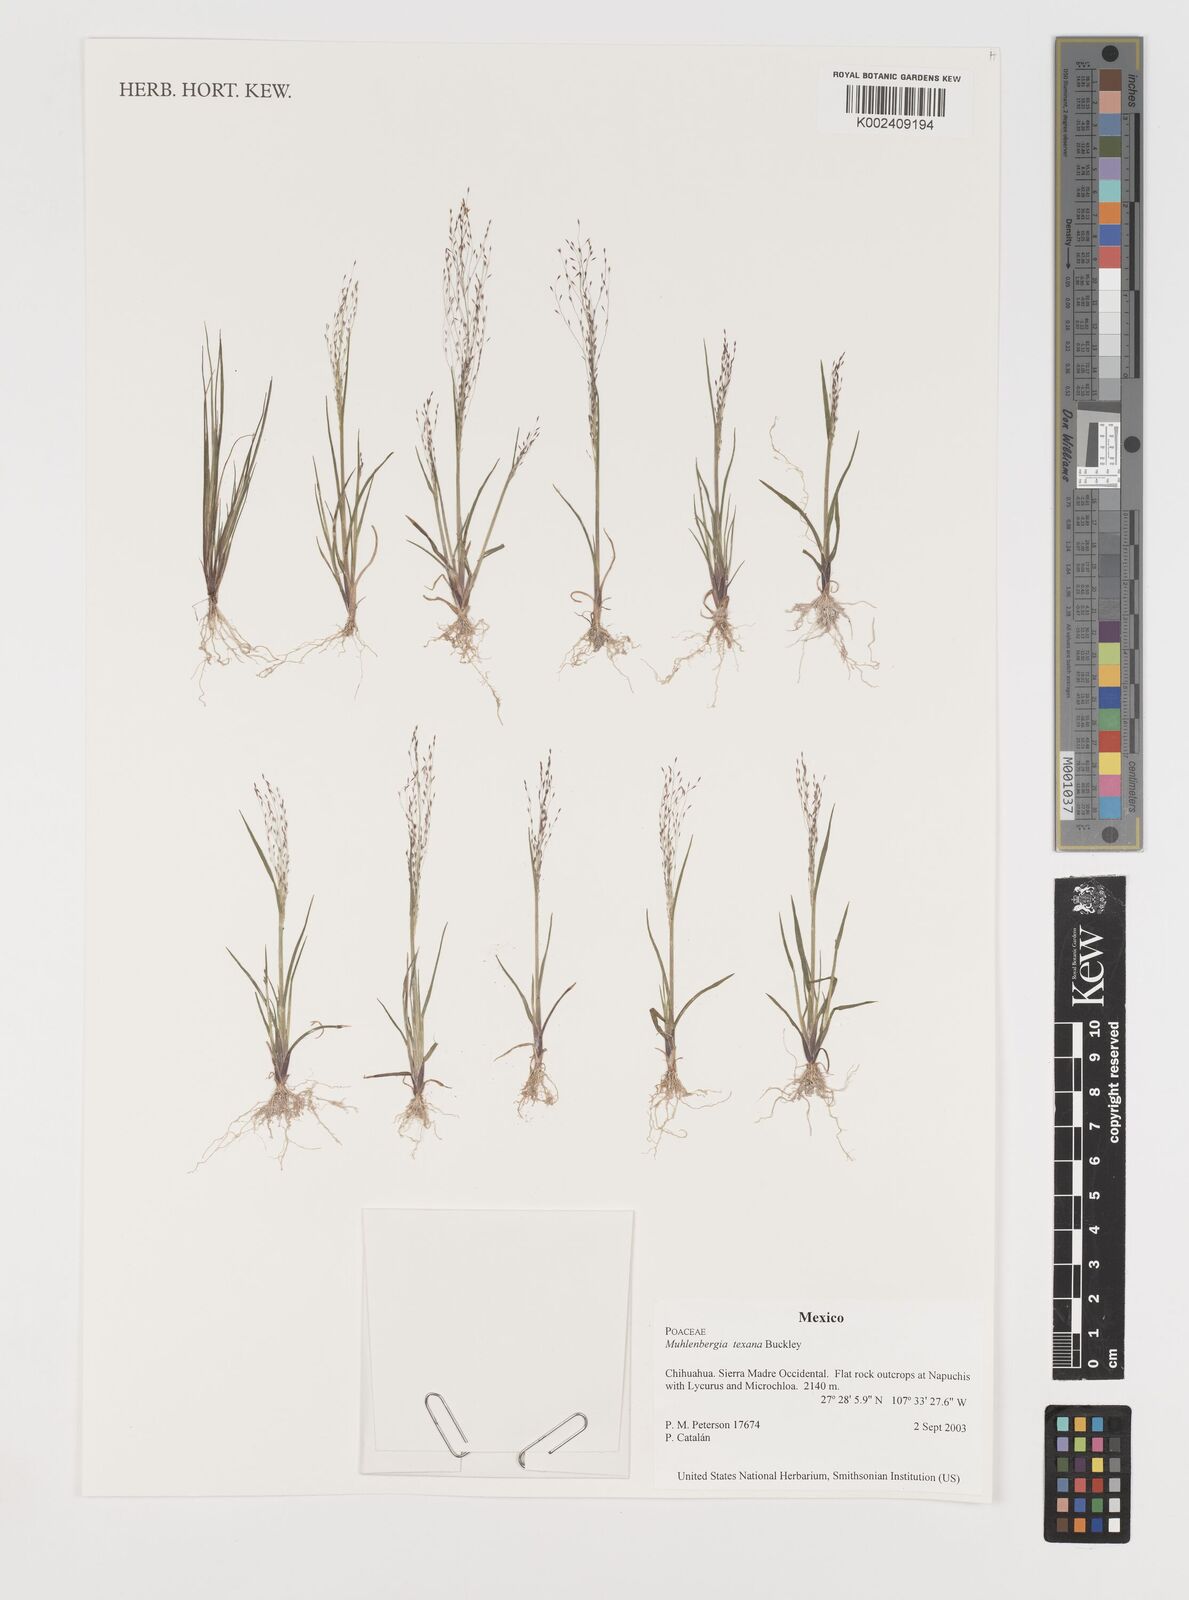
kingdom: Plantae
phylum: Tracheophyta
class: Liliopsida
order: Poales
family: Poaceae
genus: Muhlenbergia
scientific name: Muhlenbergia texana
